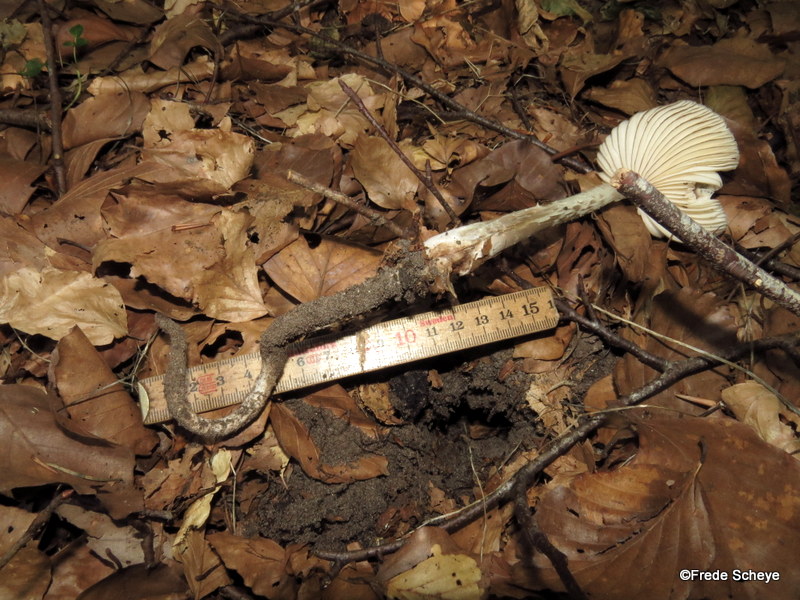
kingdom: Fungi
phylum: Basidiomycota
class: Agaricomycetes
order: Agaricales
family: Physalacriaceae
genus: Hymenopellis
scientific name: Hymenopellis radicata
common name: almindelig pælerodshat
